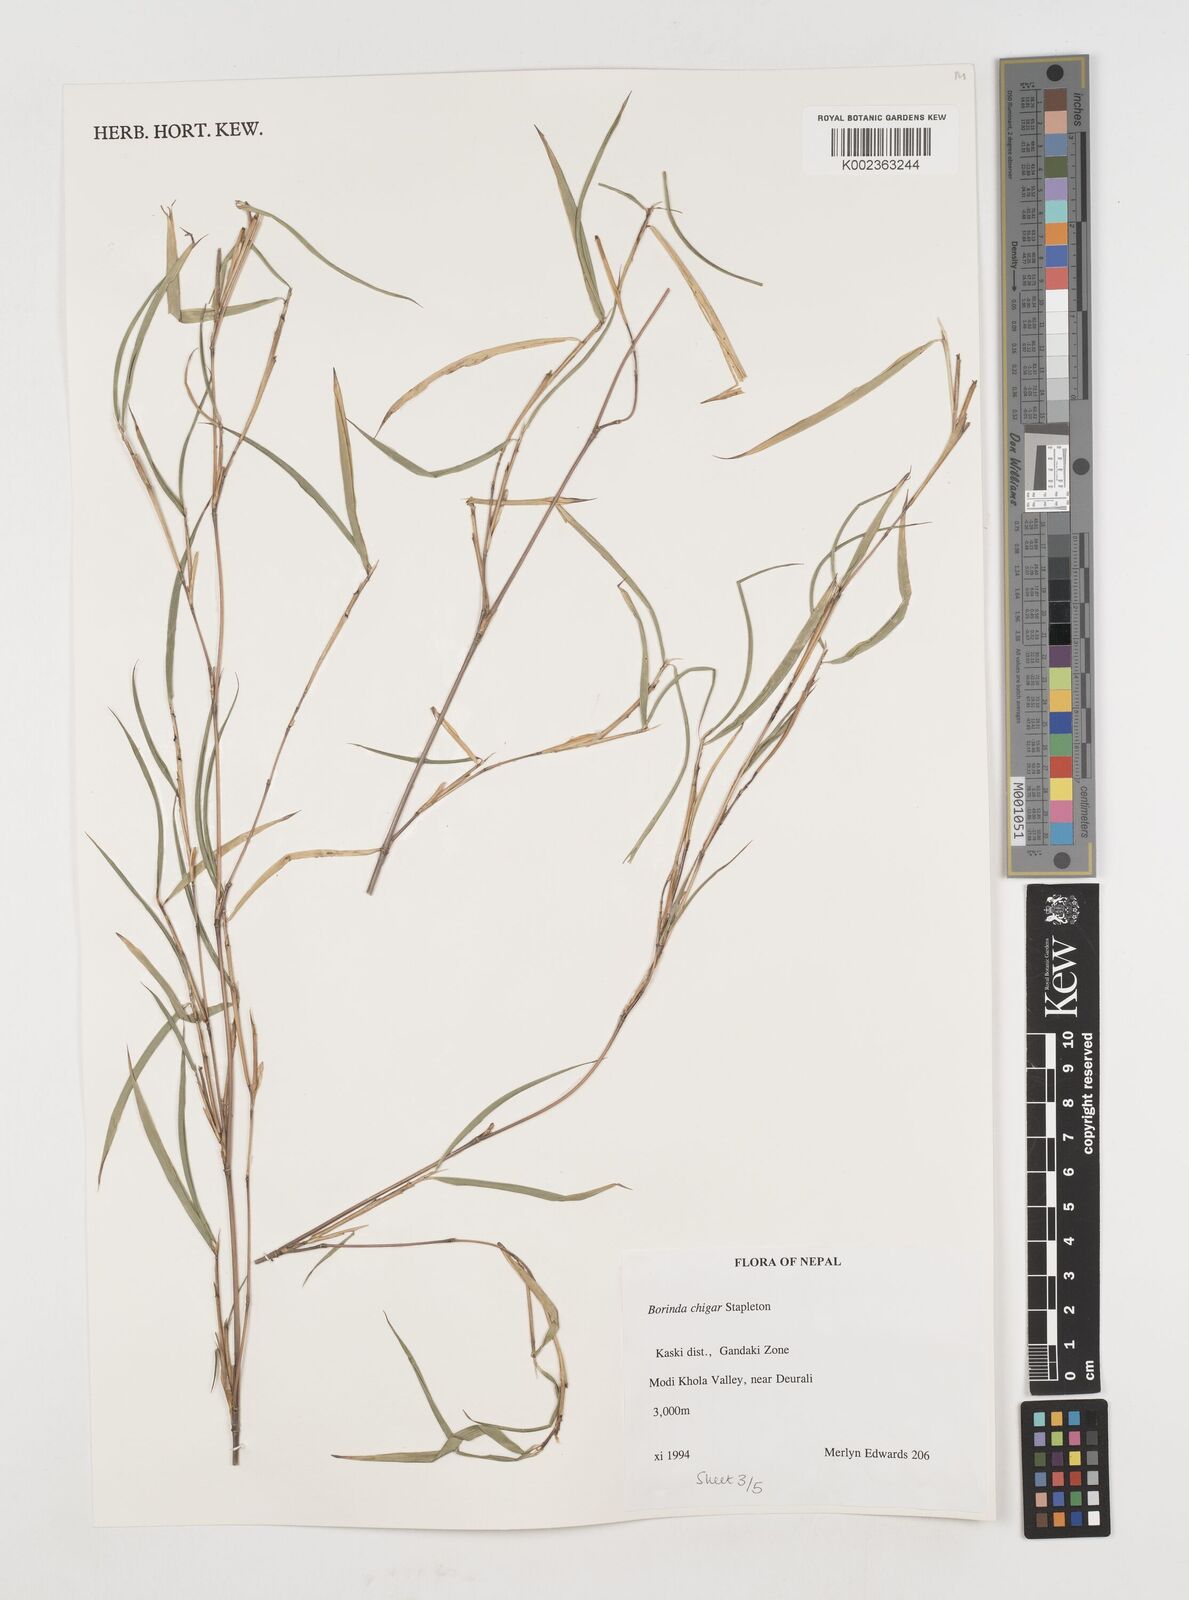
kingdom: Plantae
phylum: Tracheophyta
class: Liliopsida
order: Poales
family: Poaceae
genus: Fargesia
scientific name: Fargesia
